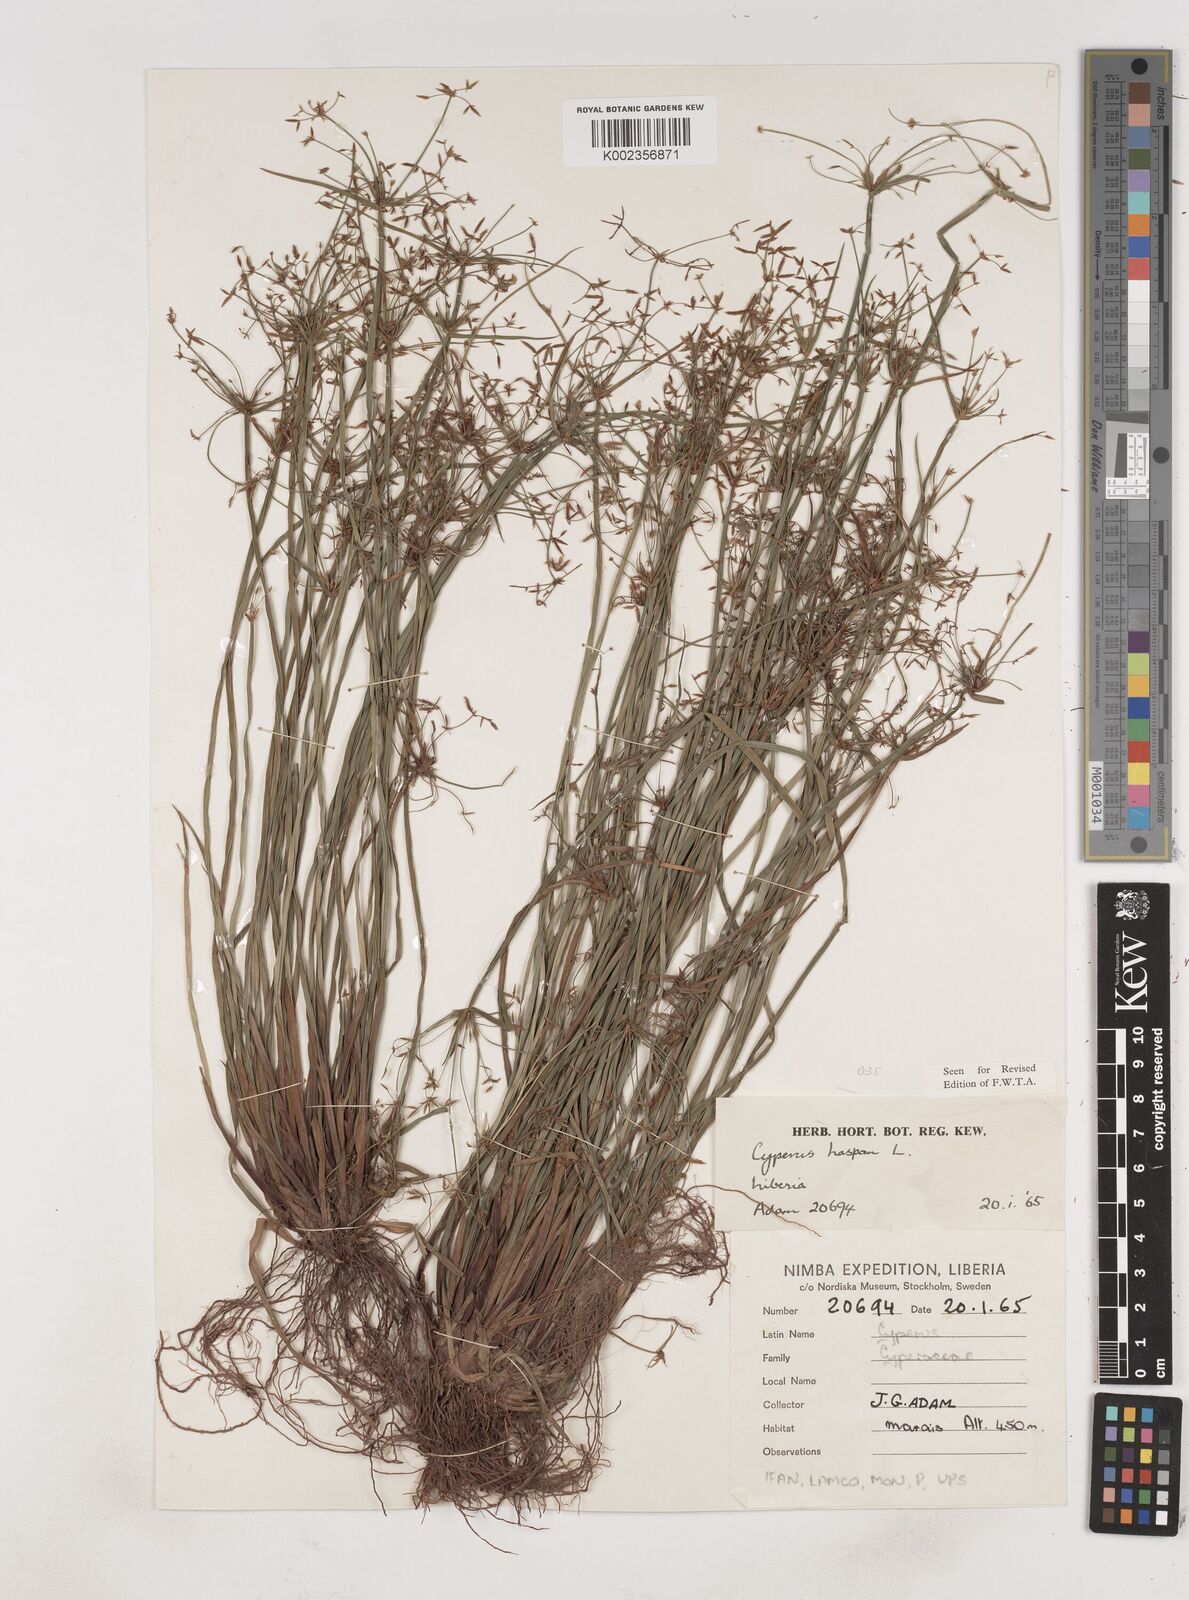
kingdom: Plantae
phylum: Tracheophyta
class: Liliopsida
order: Poales
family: Cyperaceae
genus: Cyperus
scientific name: Cyperus haspan
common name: Haspan flatsedge
